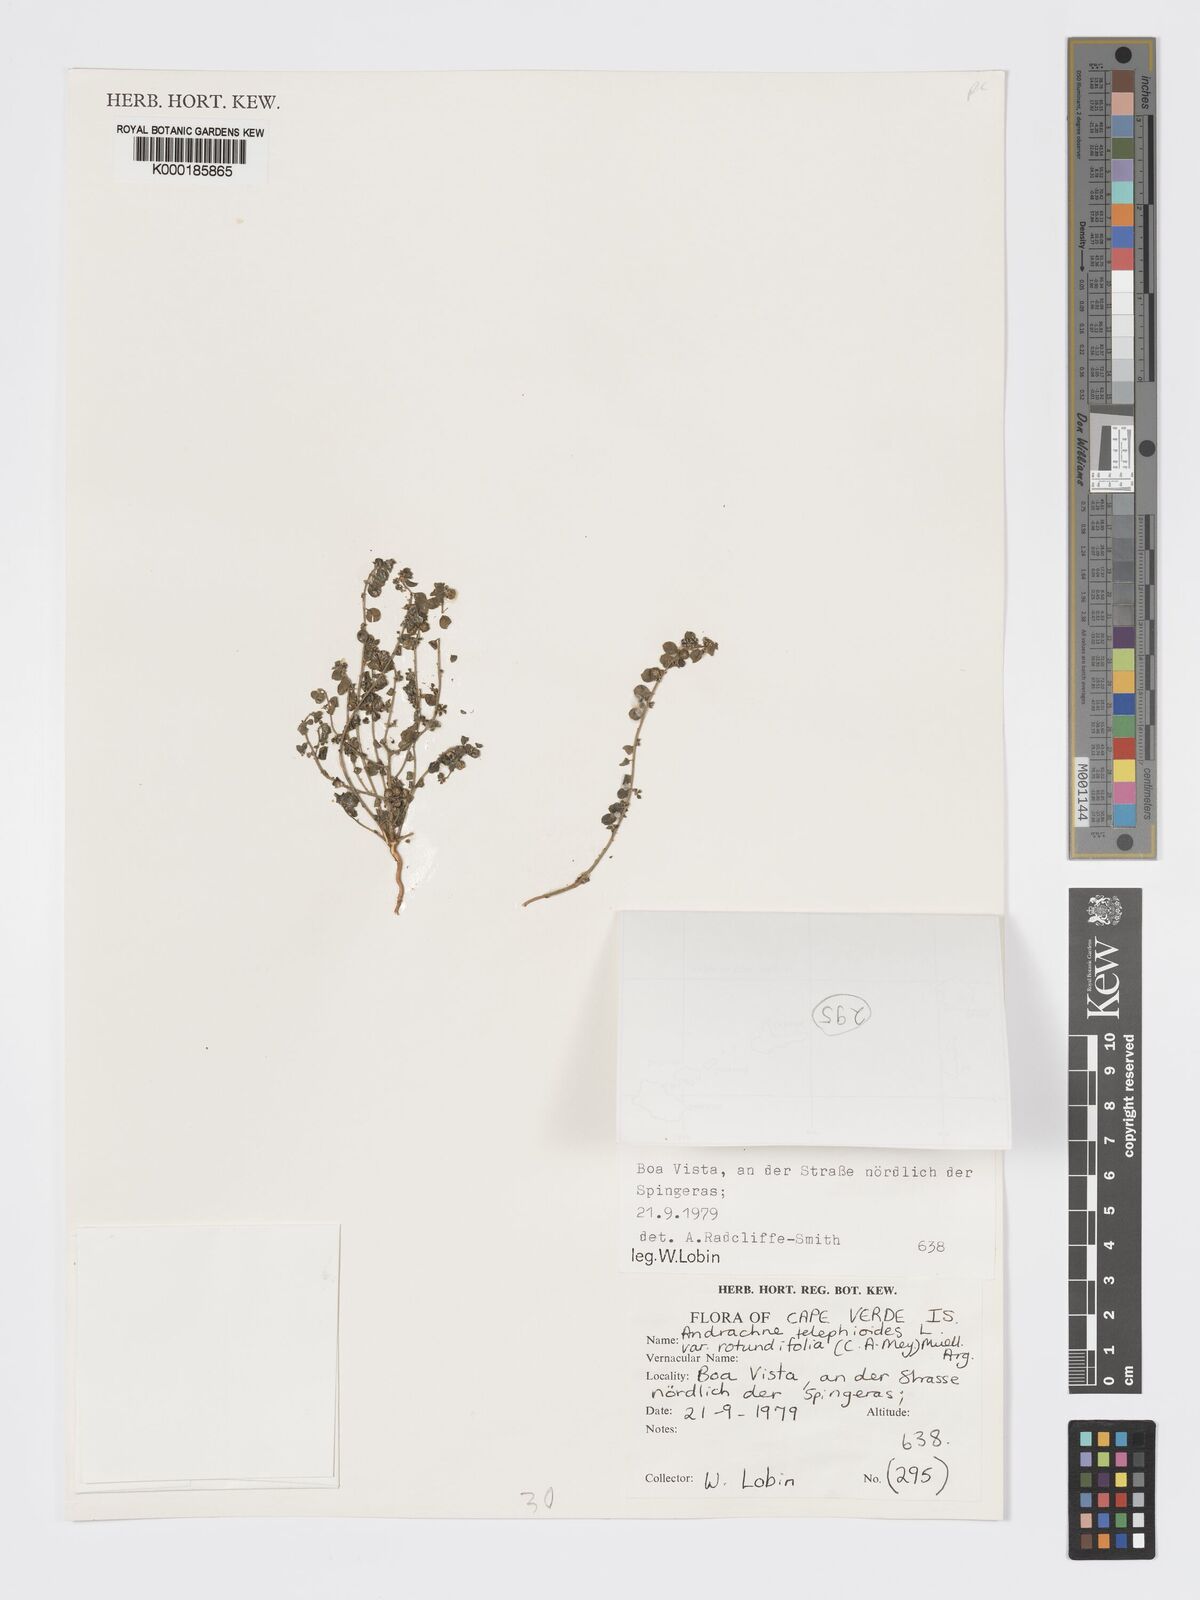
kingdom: Plantae
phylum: Tracheophyta
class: Magnoliopsida
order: Malpighiales
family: Phyllanthaceae
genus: Andrachne
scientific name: Andrachne telephioides
